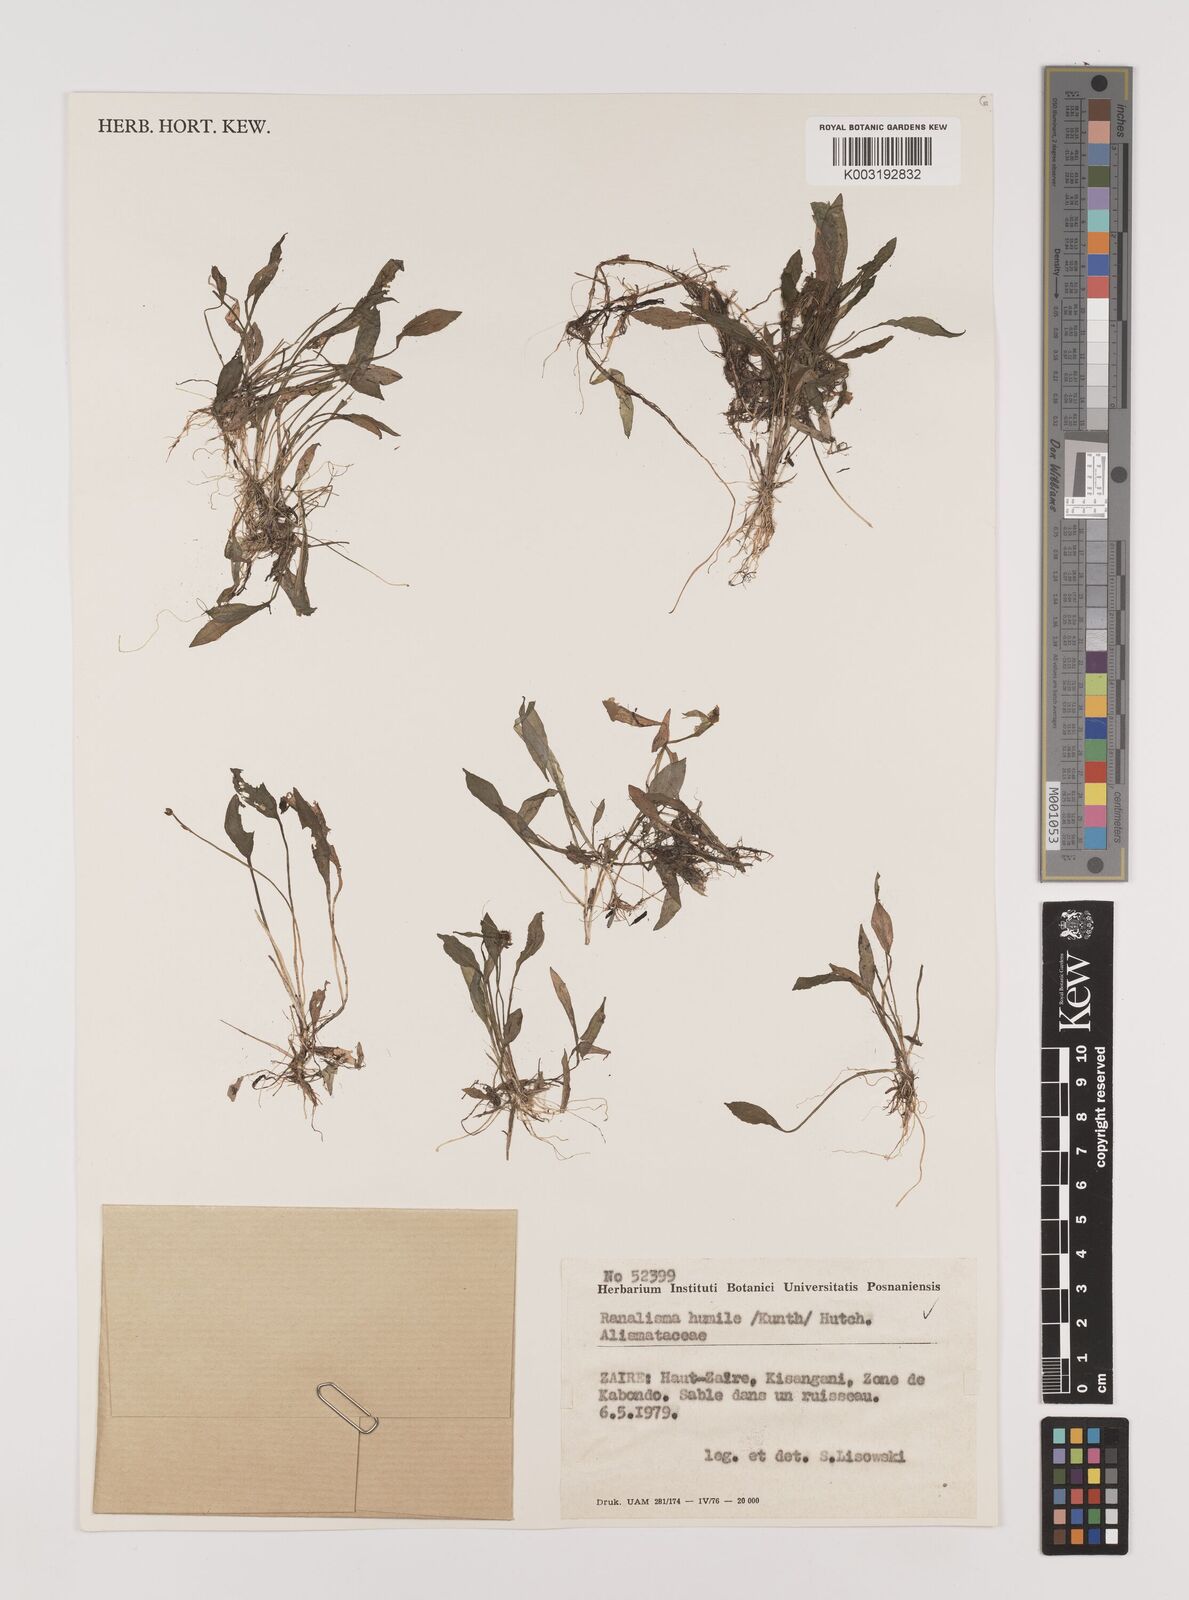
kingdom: Plantae
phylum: Tracheophyta
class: Liliopsida
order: Alismatales
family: Alismataceae
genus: Ranalisma
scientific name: Ranalisma humile
